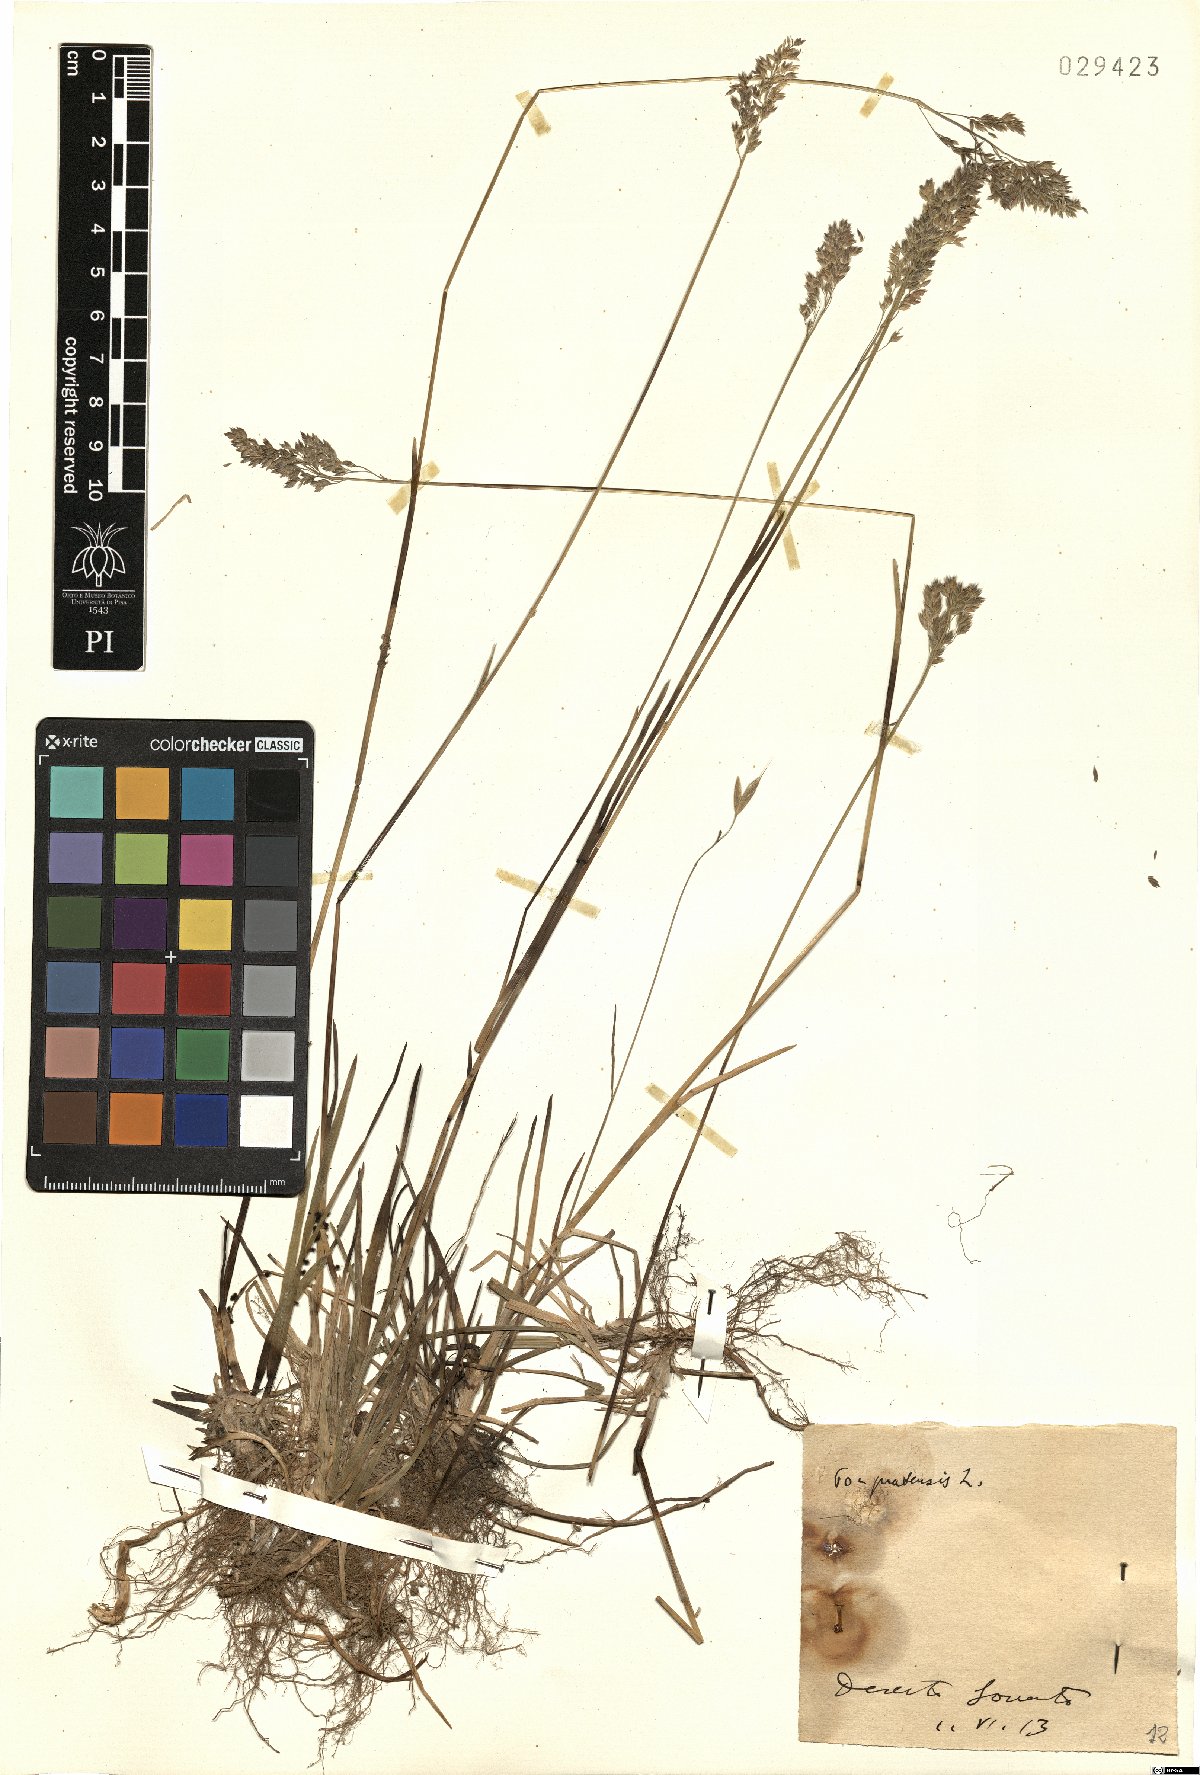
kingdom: Plantae
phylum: Tracheophyta
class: Liliopsida
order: Poales
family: Poaceae
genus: Poa
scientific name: Poa pratensis
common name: Kentucky bluegrass
